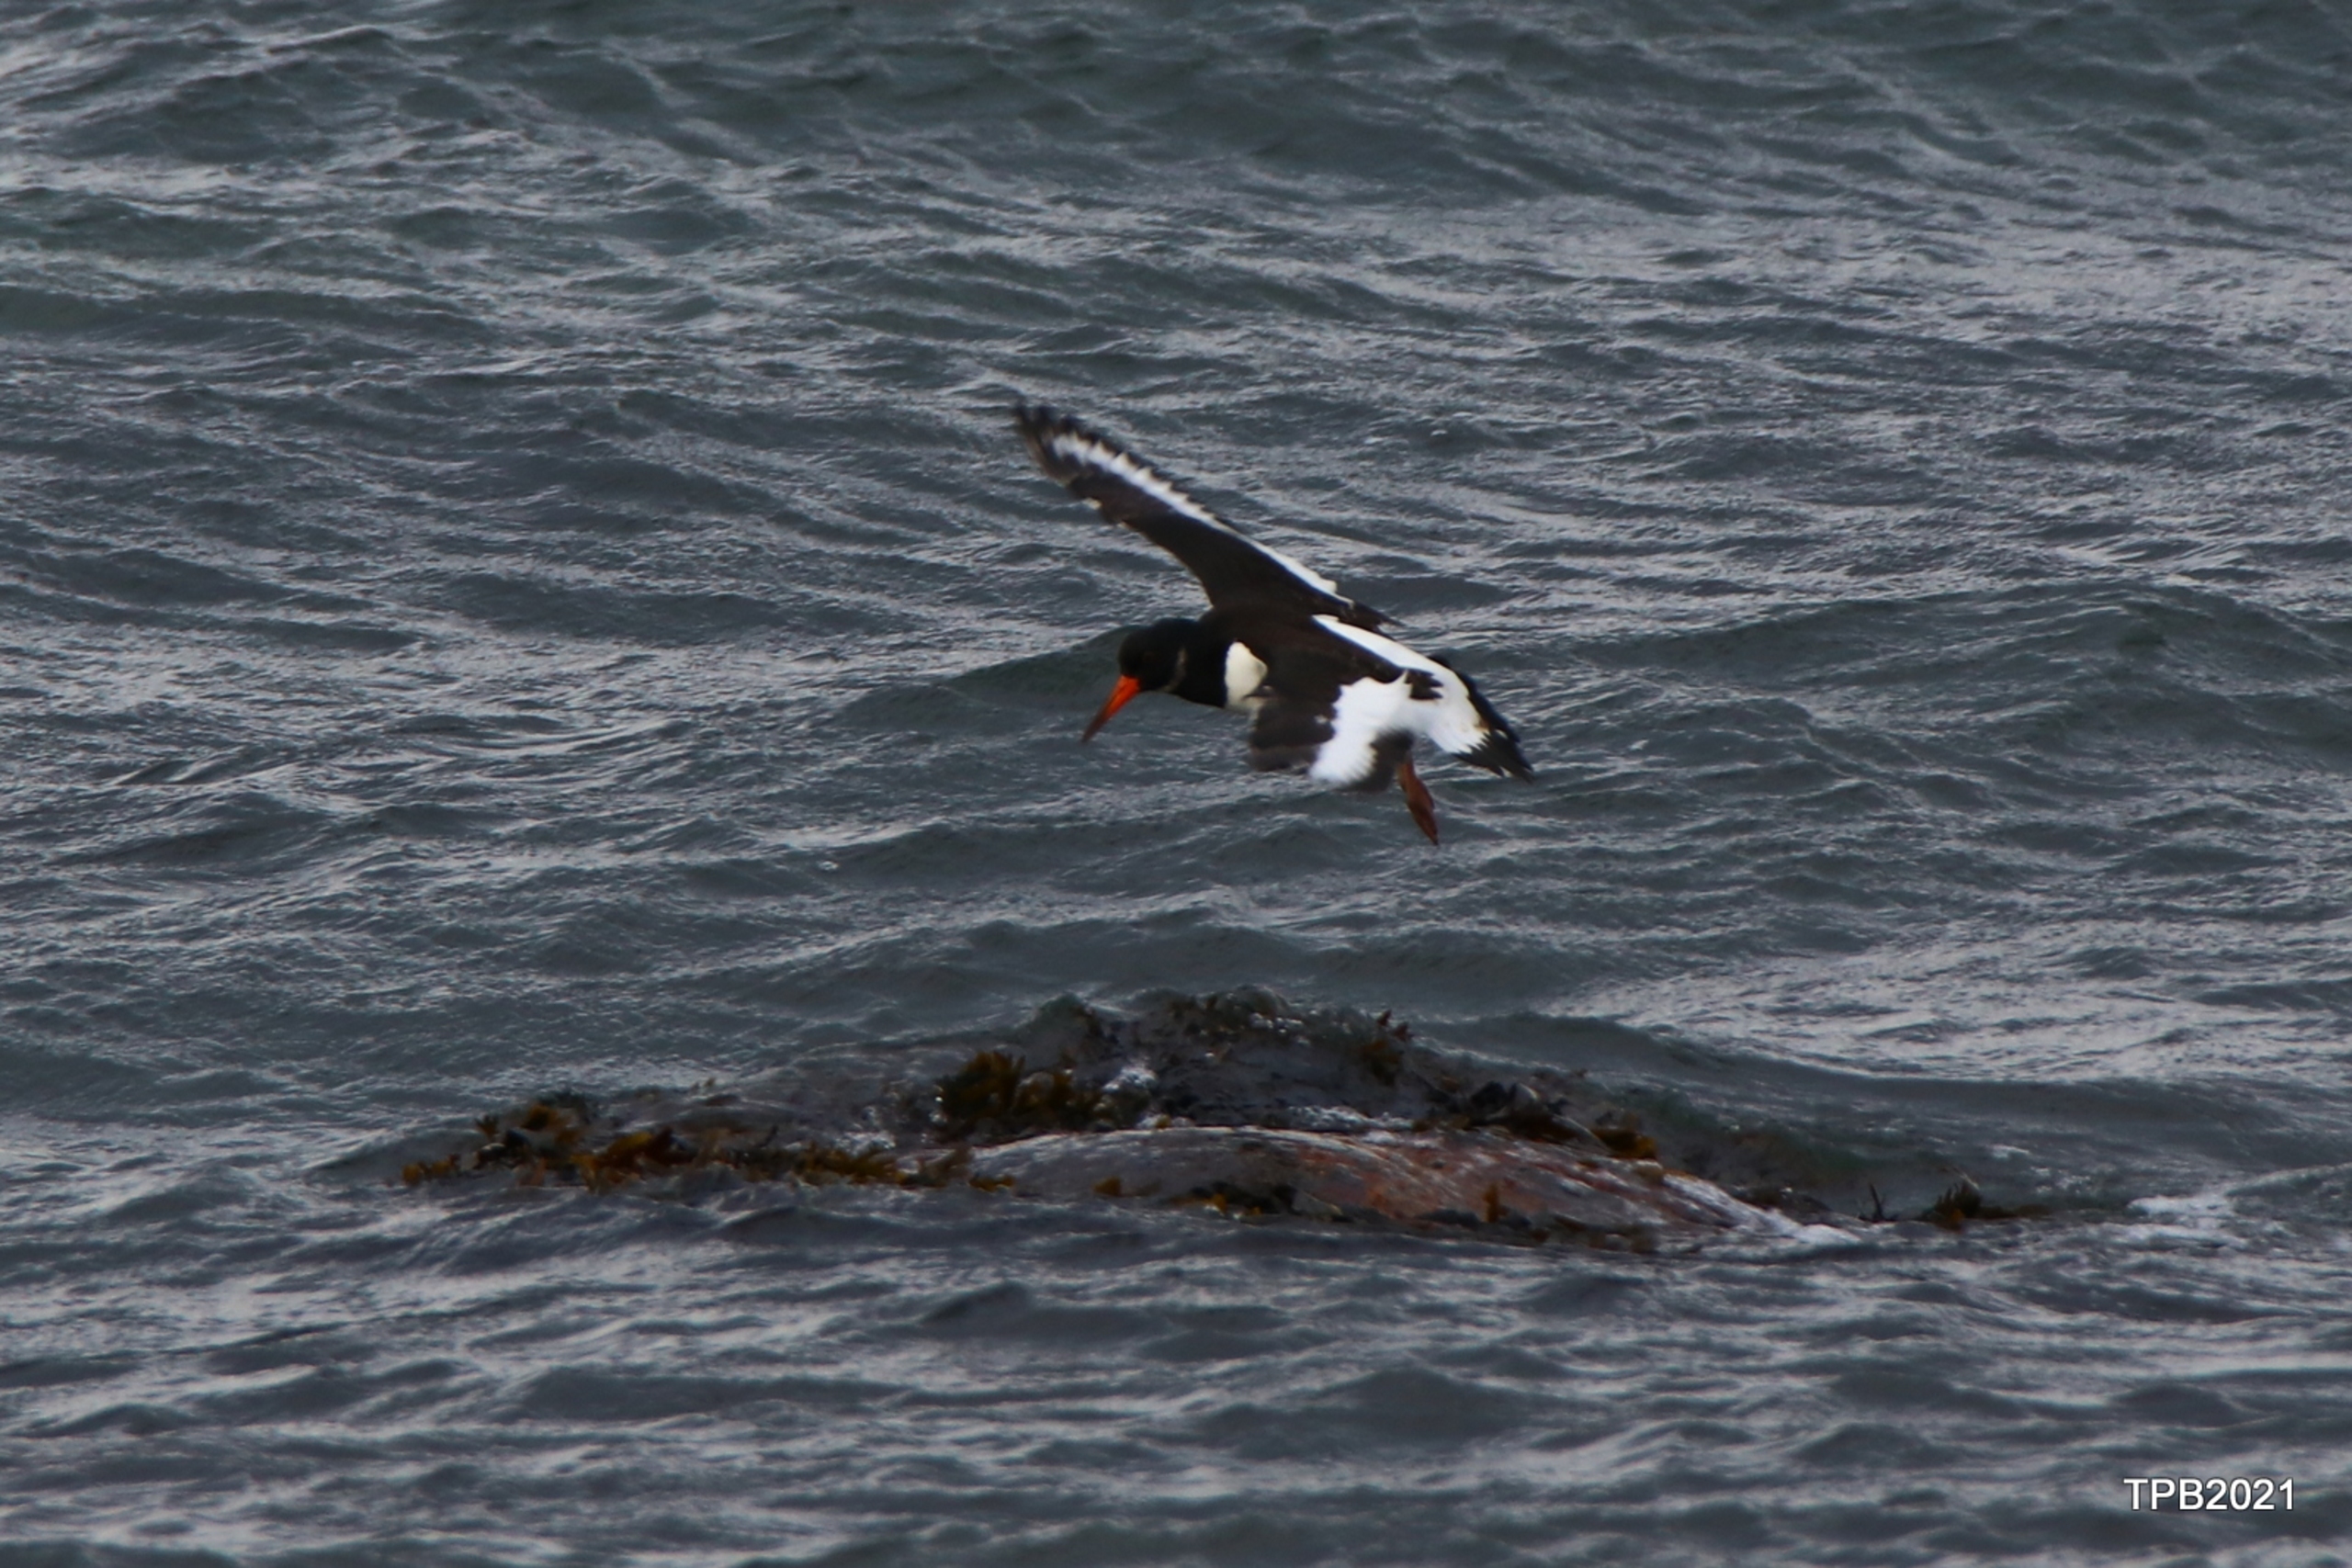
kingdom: Animalia
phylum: Chordata
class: Aves
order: Charadriiformes
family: Haematopodidae
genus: Haematopus
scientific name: Haematopus ostralegus
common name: Strandskade
